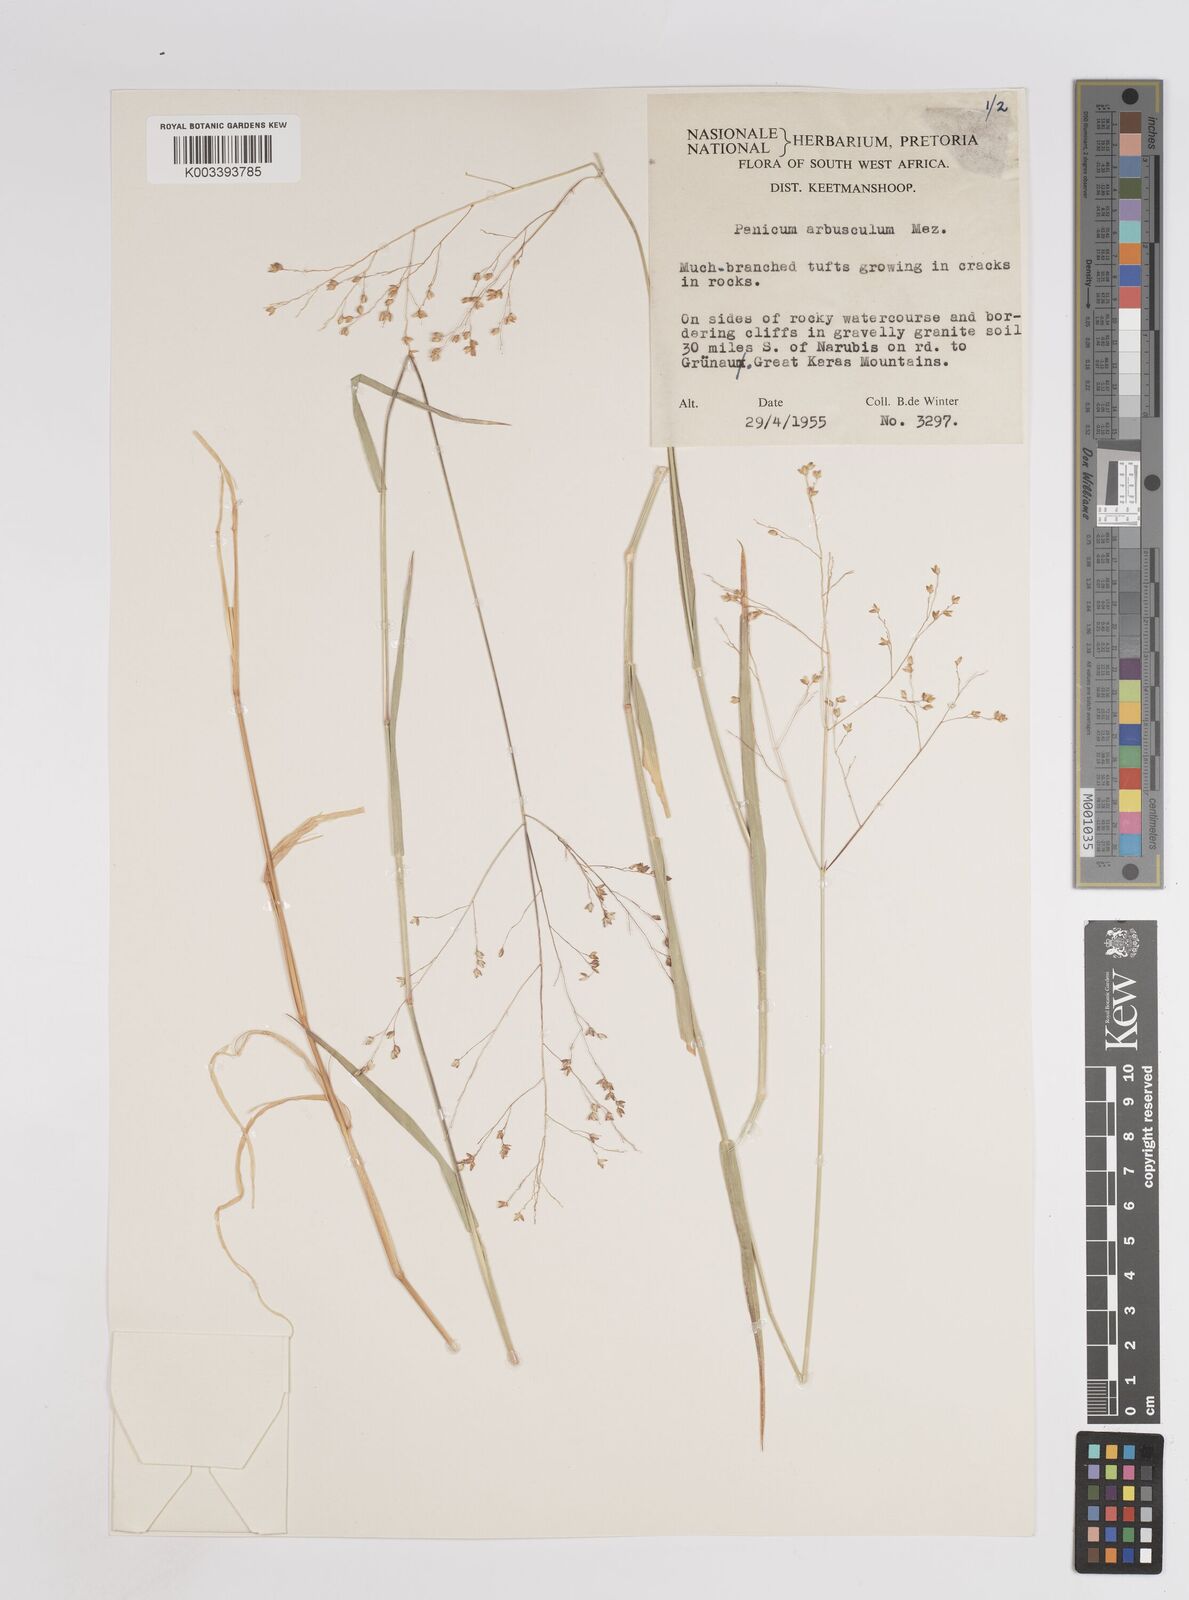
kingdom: Plantae
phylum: Tracheophyta
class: Liliopsida
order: Poales
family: Poaceae
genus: Panicum
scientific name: Panicum arbusculum
